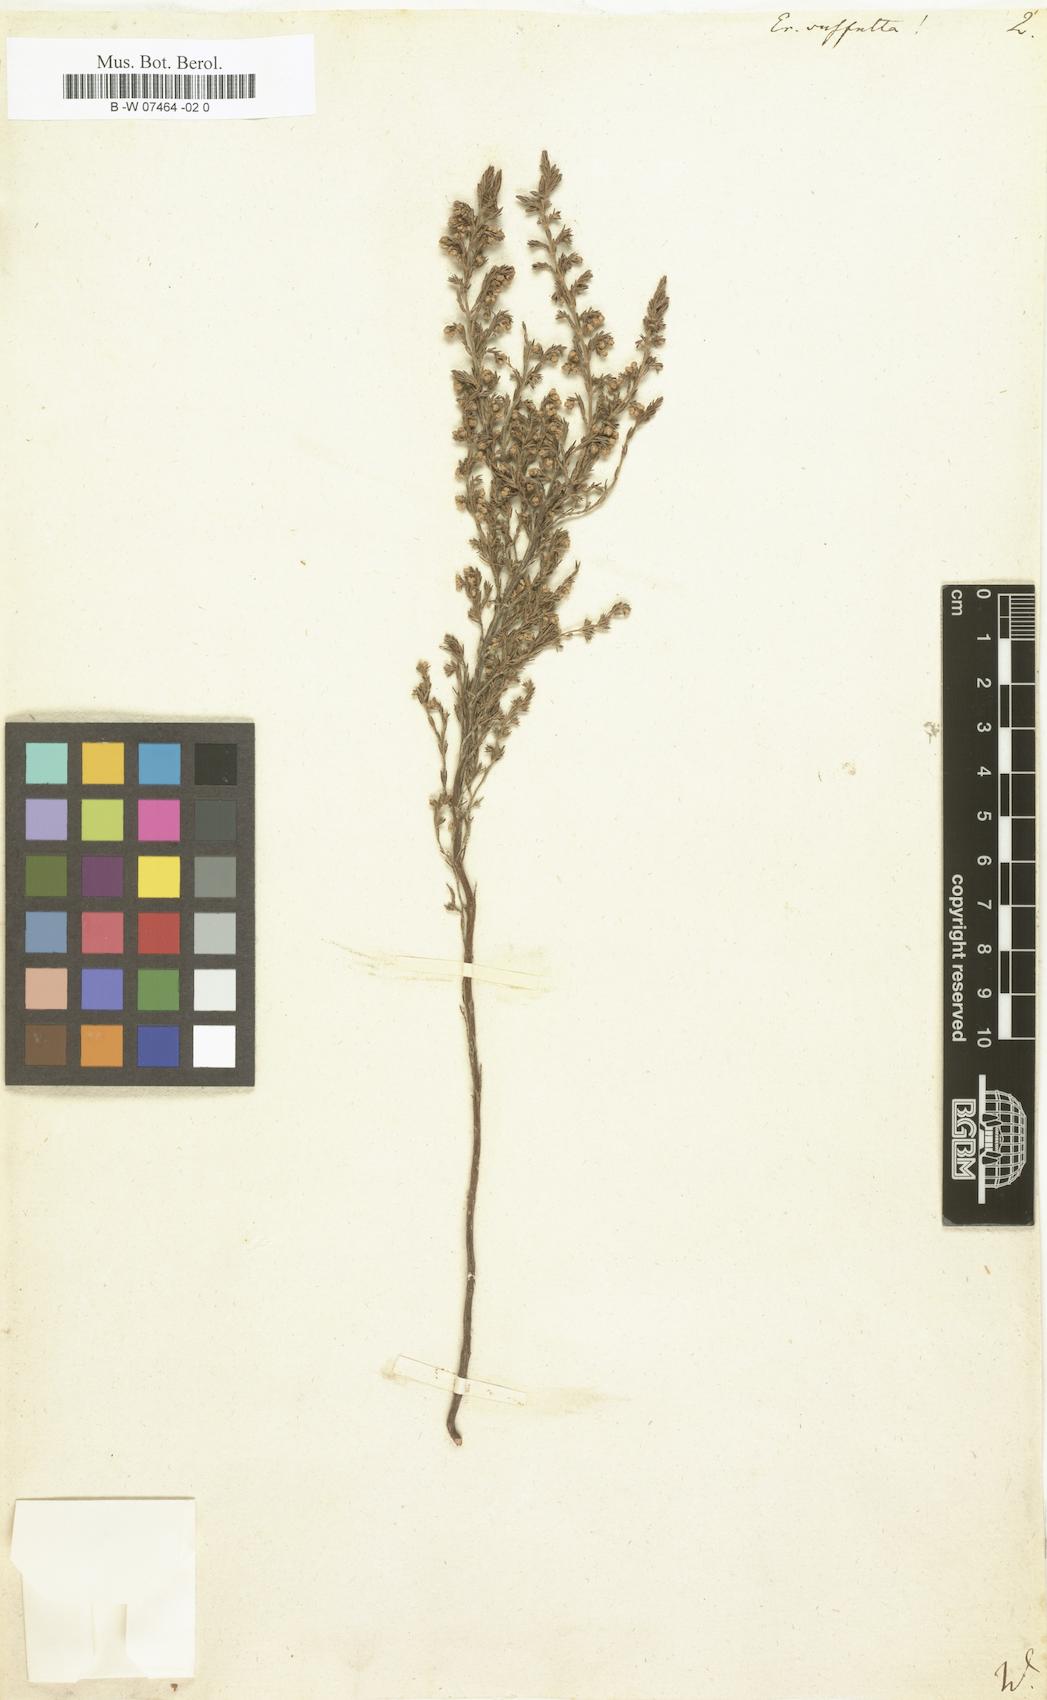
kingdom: Plantae
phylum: Tracheophyta
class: Magnoliopsida
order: Ericales
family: Ericaceae
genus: Erica
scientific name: Erica suffulta
